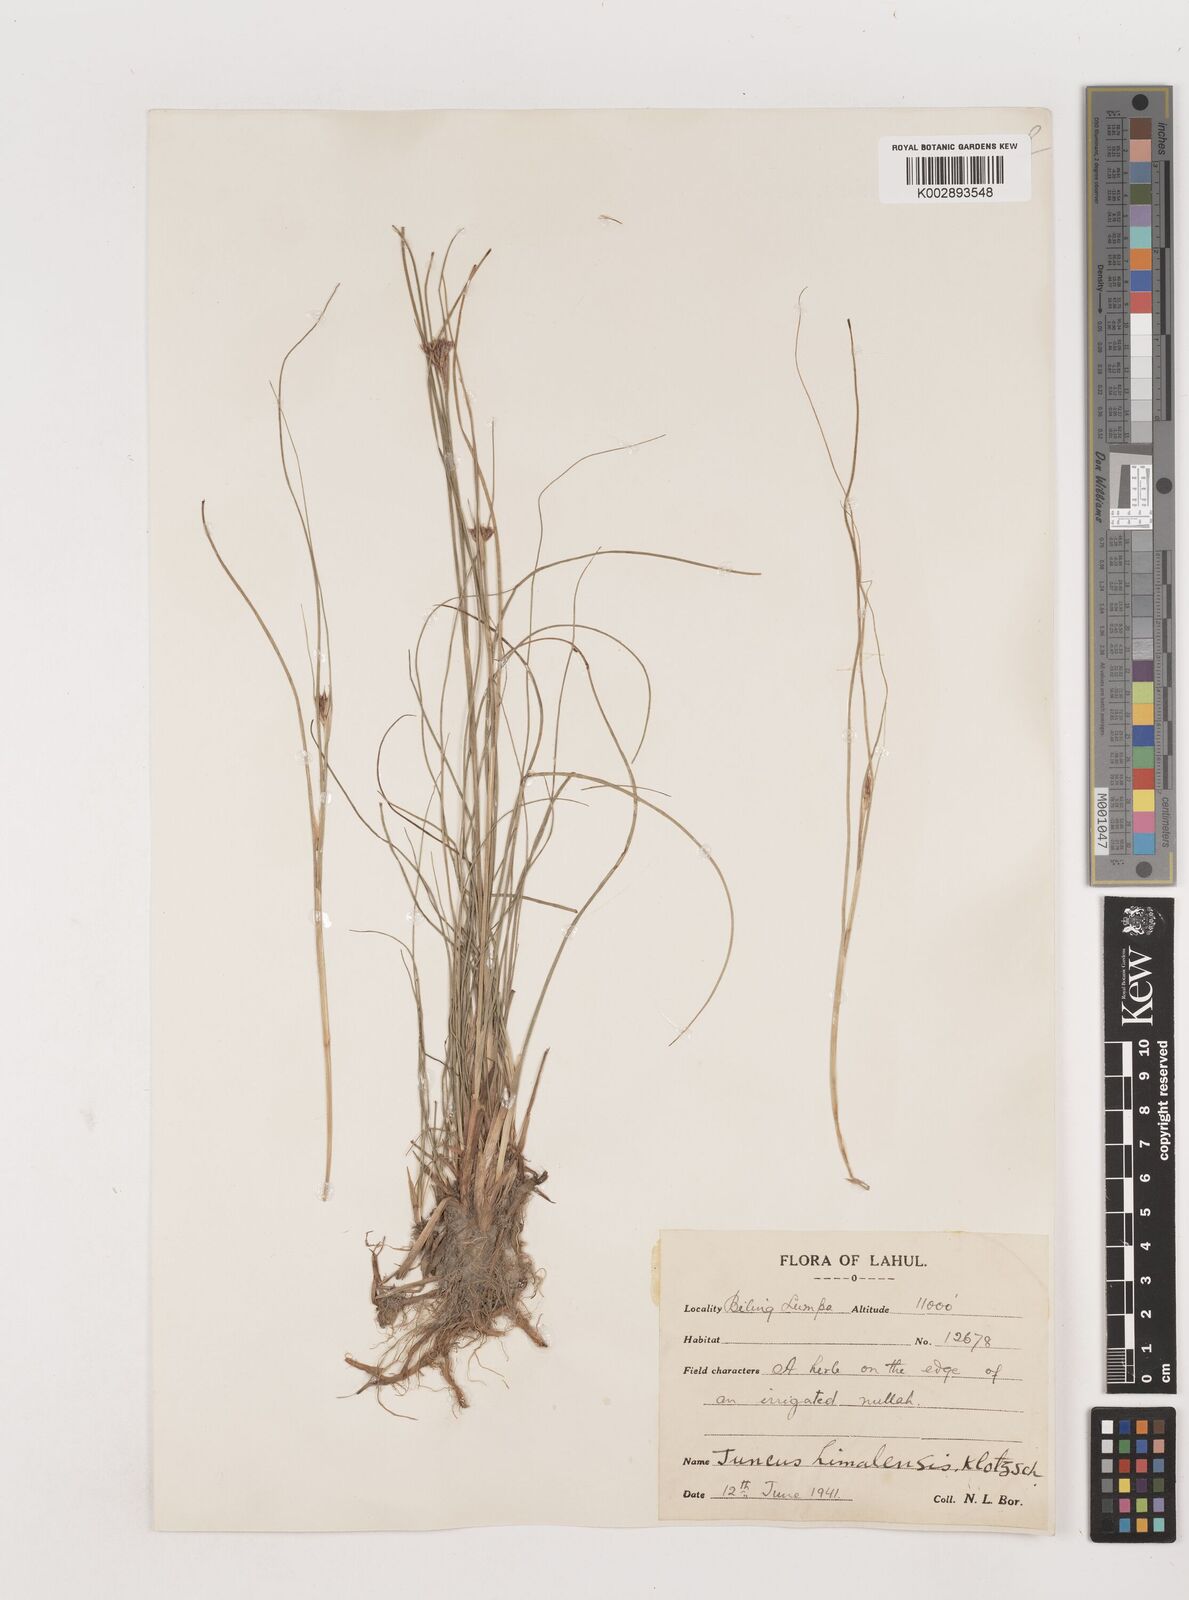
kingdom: Plantae
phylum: Tracheophyta
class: Liliopsida
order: Poales
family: Juncaceae
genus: Juncus
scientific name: Juncus himalensis
